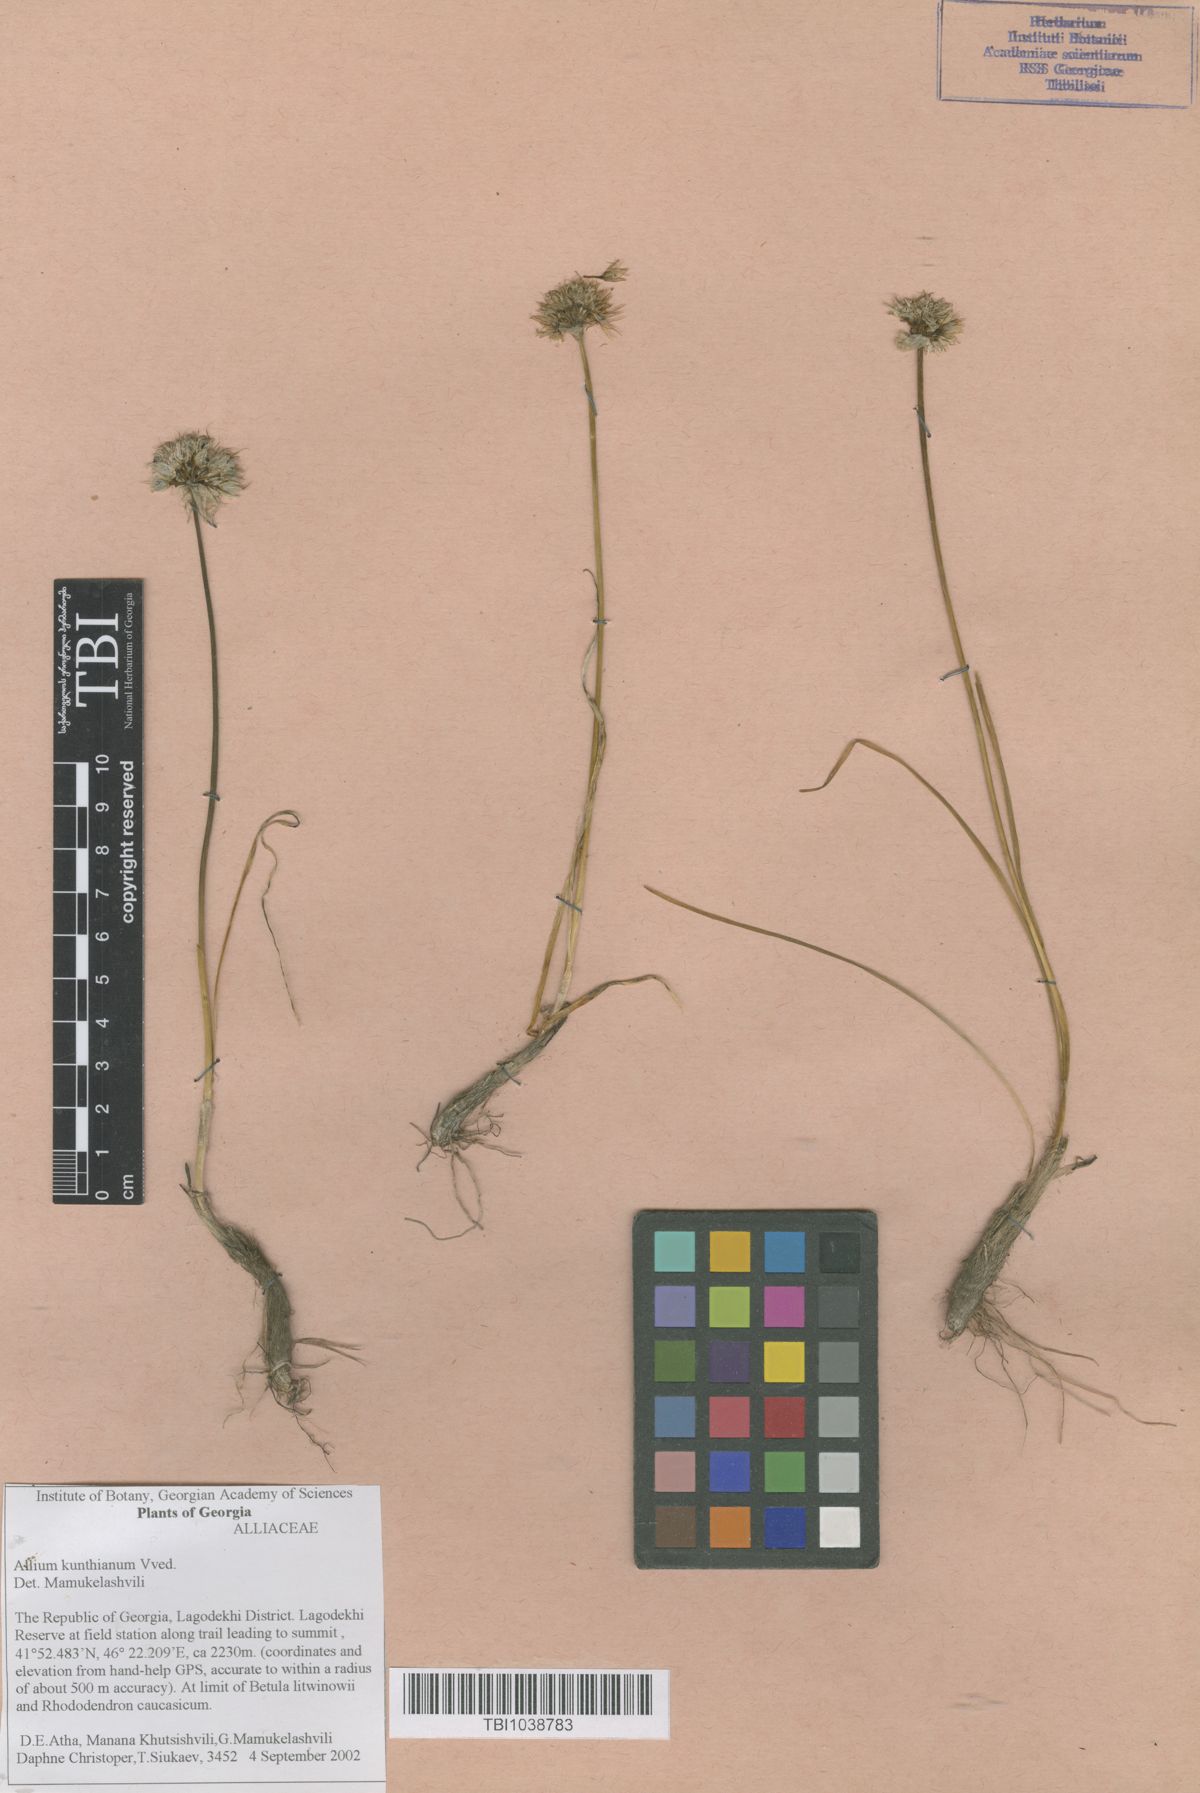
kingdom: Plantae
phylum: Tracheophyta
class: Liliopsida
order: Asparagales
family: Amaryllidaceae
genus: Allium
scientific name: Allium kunthianum
